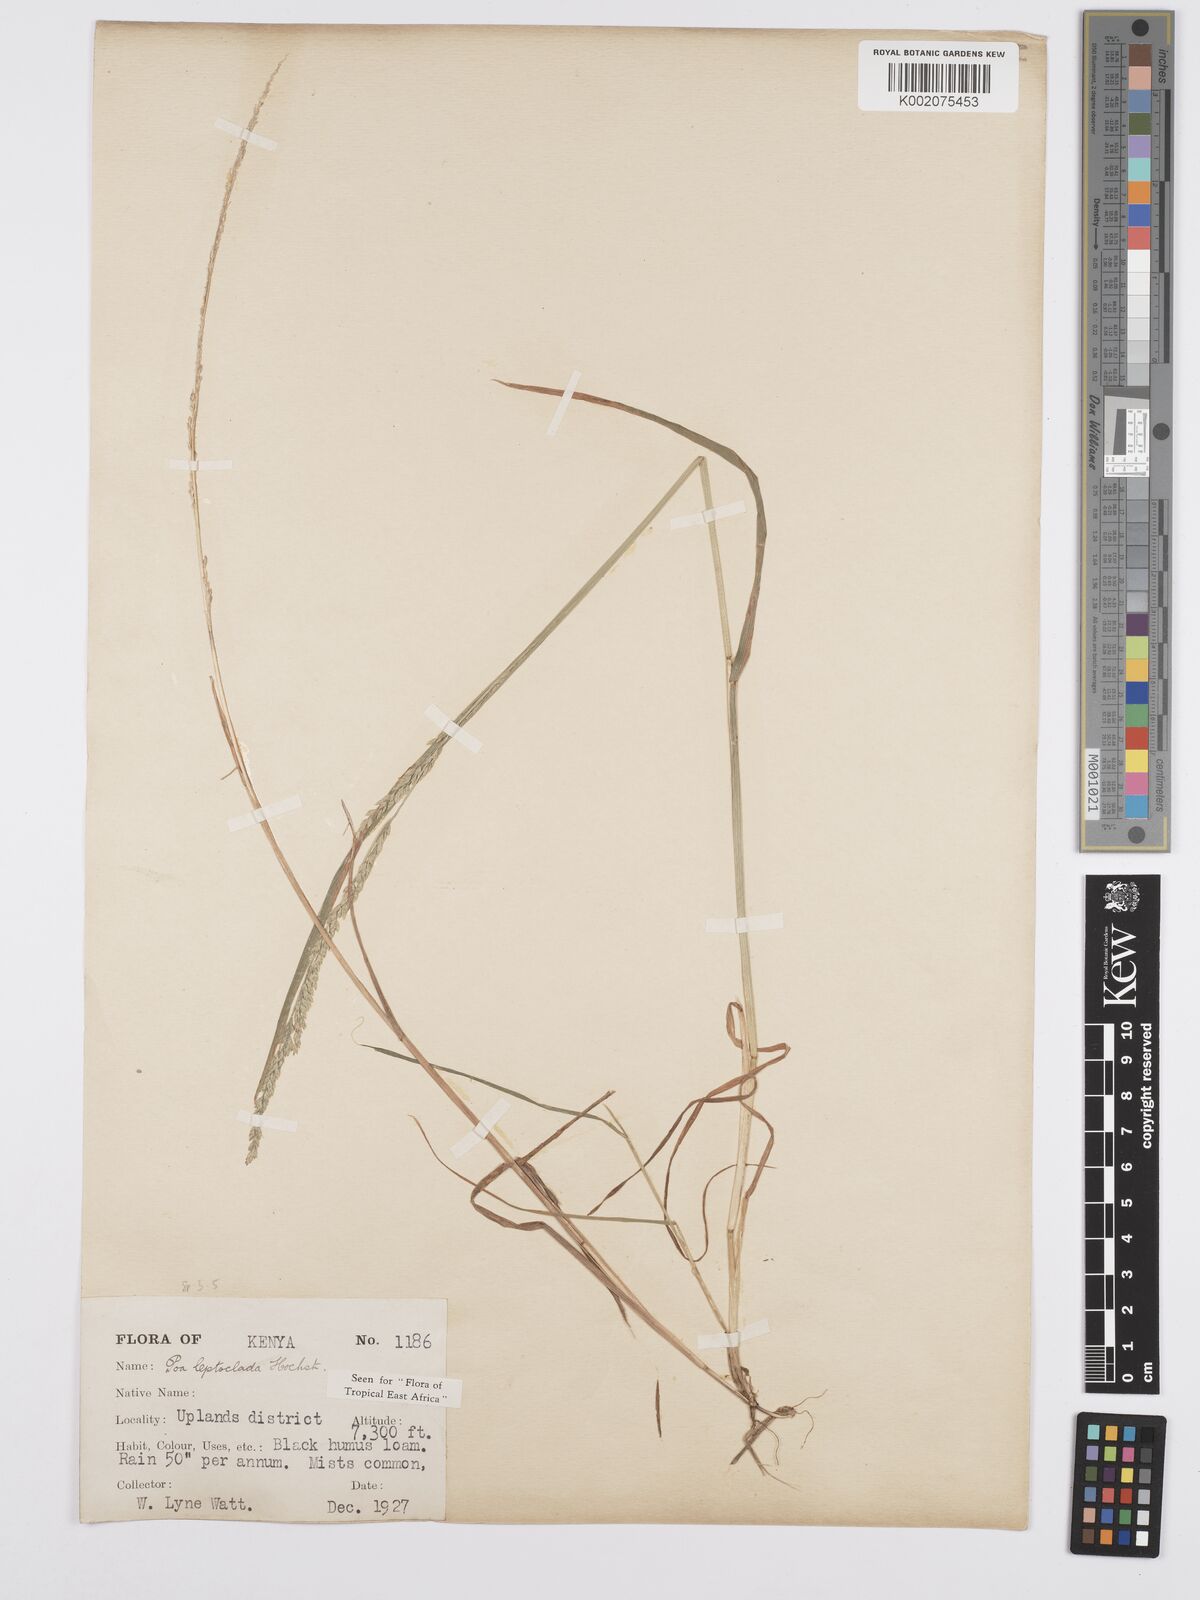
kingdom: Plantae
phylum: Tracheophyta
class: Liliopsida
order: Poales
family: Poaceae
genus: Poa
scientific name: Poa leptoclada
